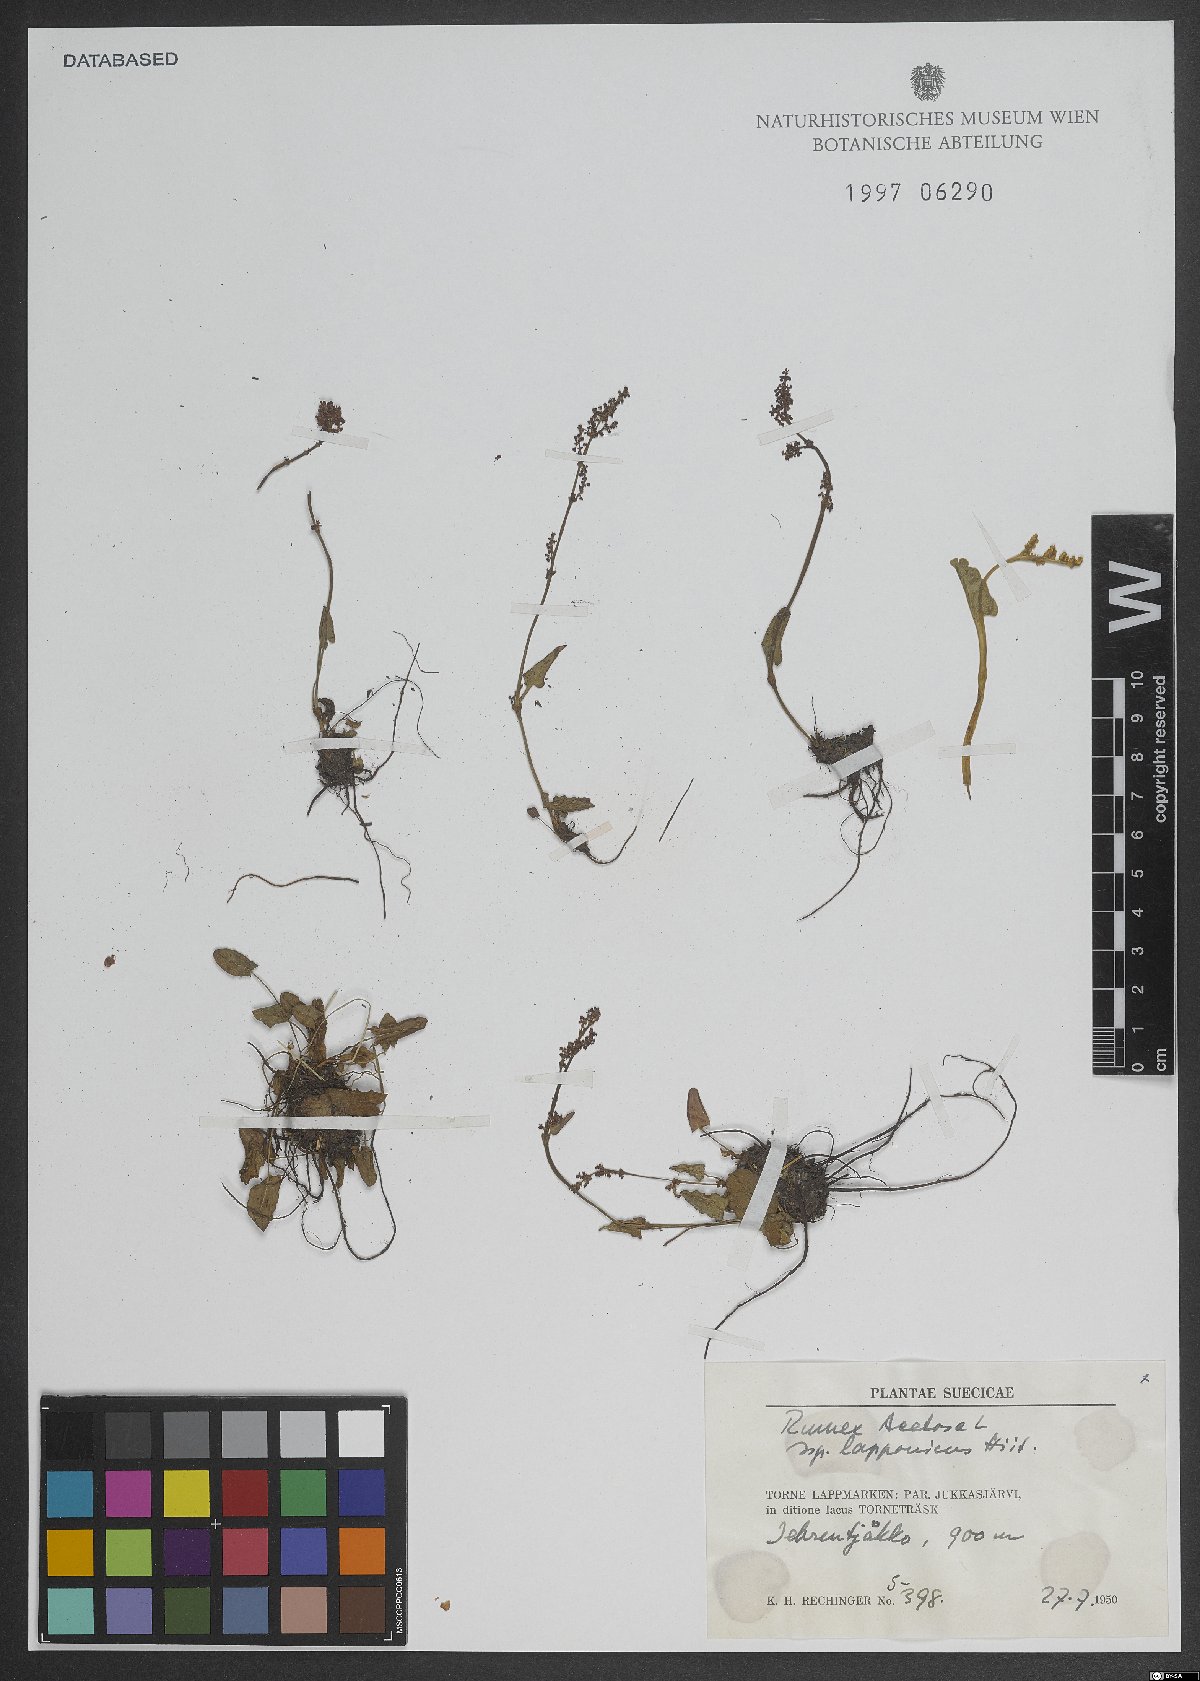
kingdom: Plantae
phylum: Tracheophyta
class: Magnoliopsida
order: Caryophyllales
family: Polygonaceae
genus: Rumex
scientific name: Rumex acetosa
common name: Garden sorrel
